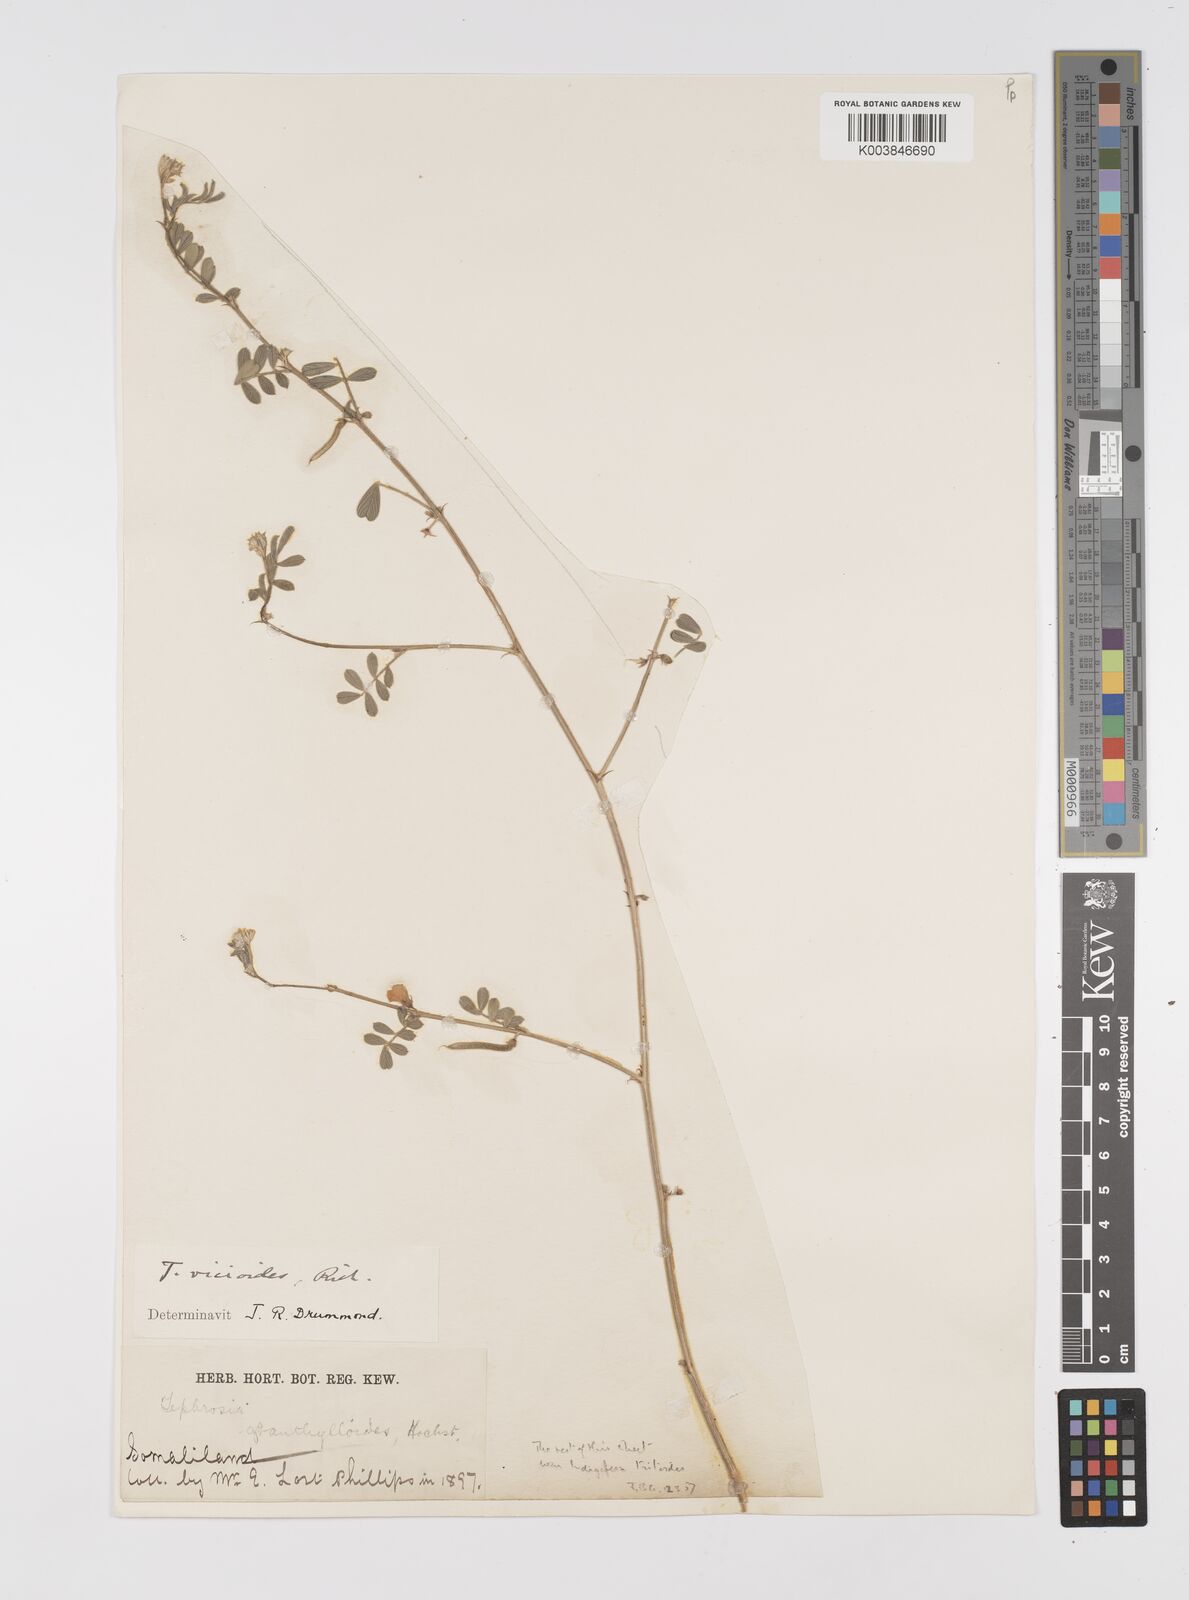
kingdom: Plantae
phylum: Tracheophyta
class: Magnoliopsida
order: Fabales
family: Fabaceae
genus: Tephrosia
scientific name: Tephrosia uniflora
